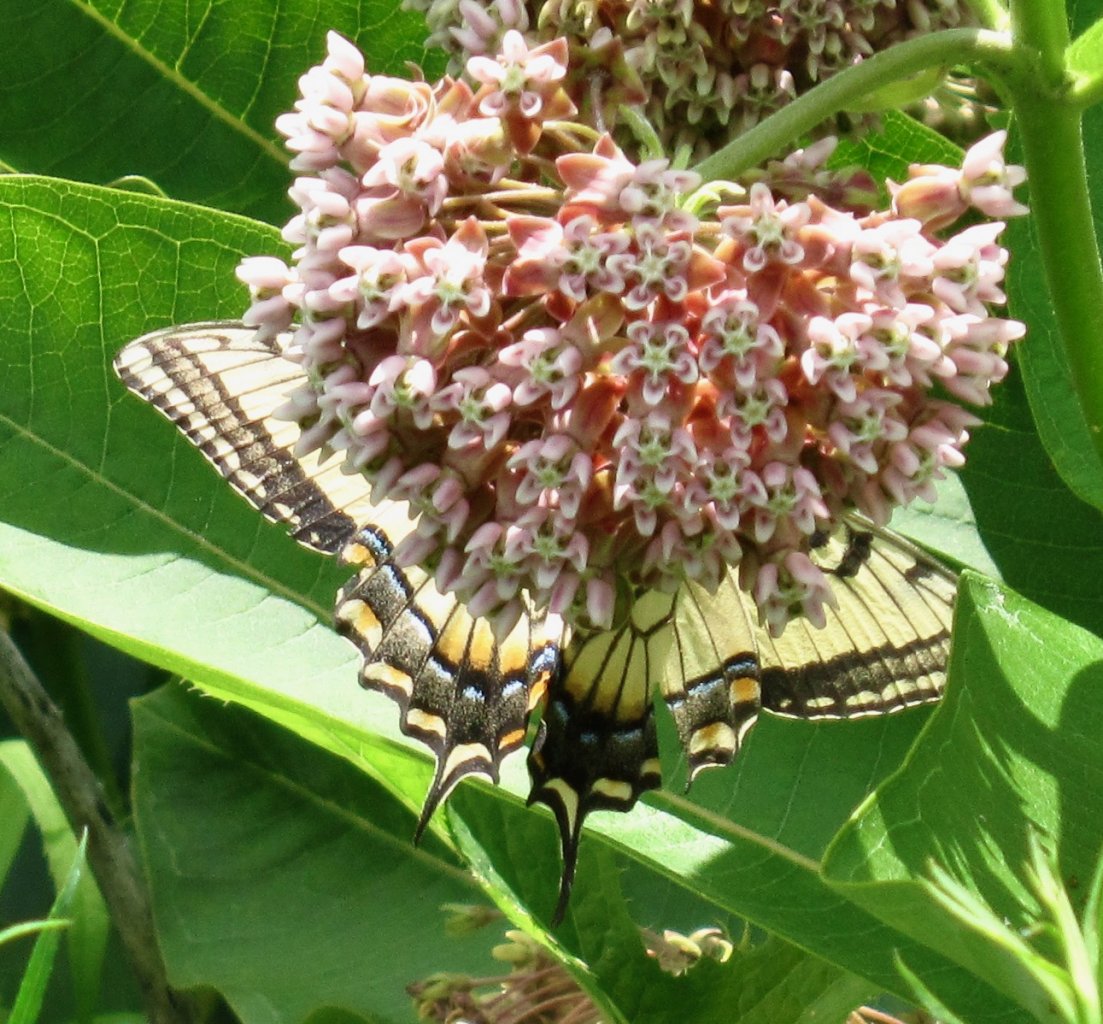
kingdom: Animalia
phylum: Arthropoda
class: Insecta
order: Lepidoptera
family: Papilionidae
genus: Pterourus
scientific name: Pterourus glaucus
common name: Eastern Tiger Swallowtail
